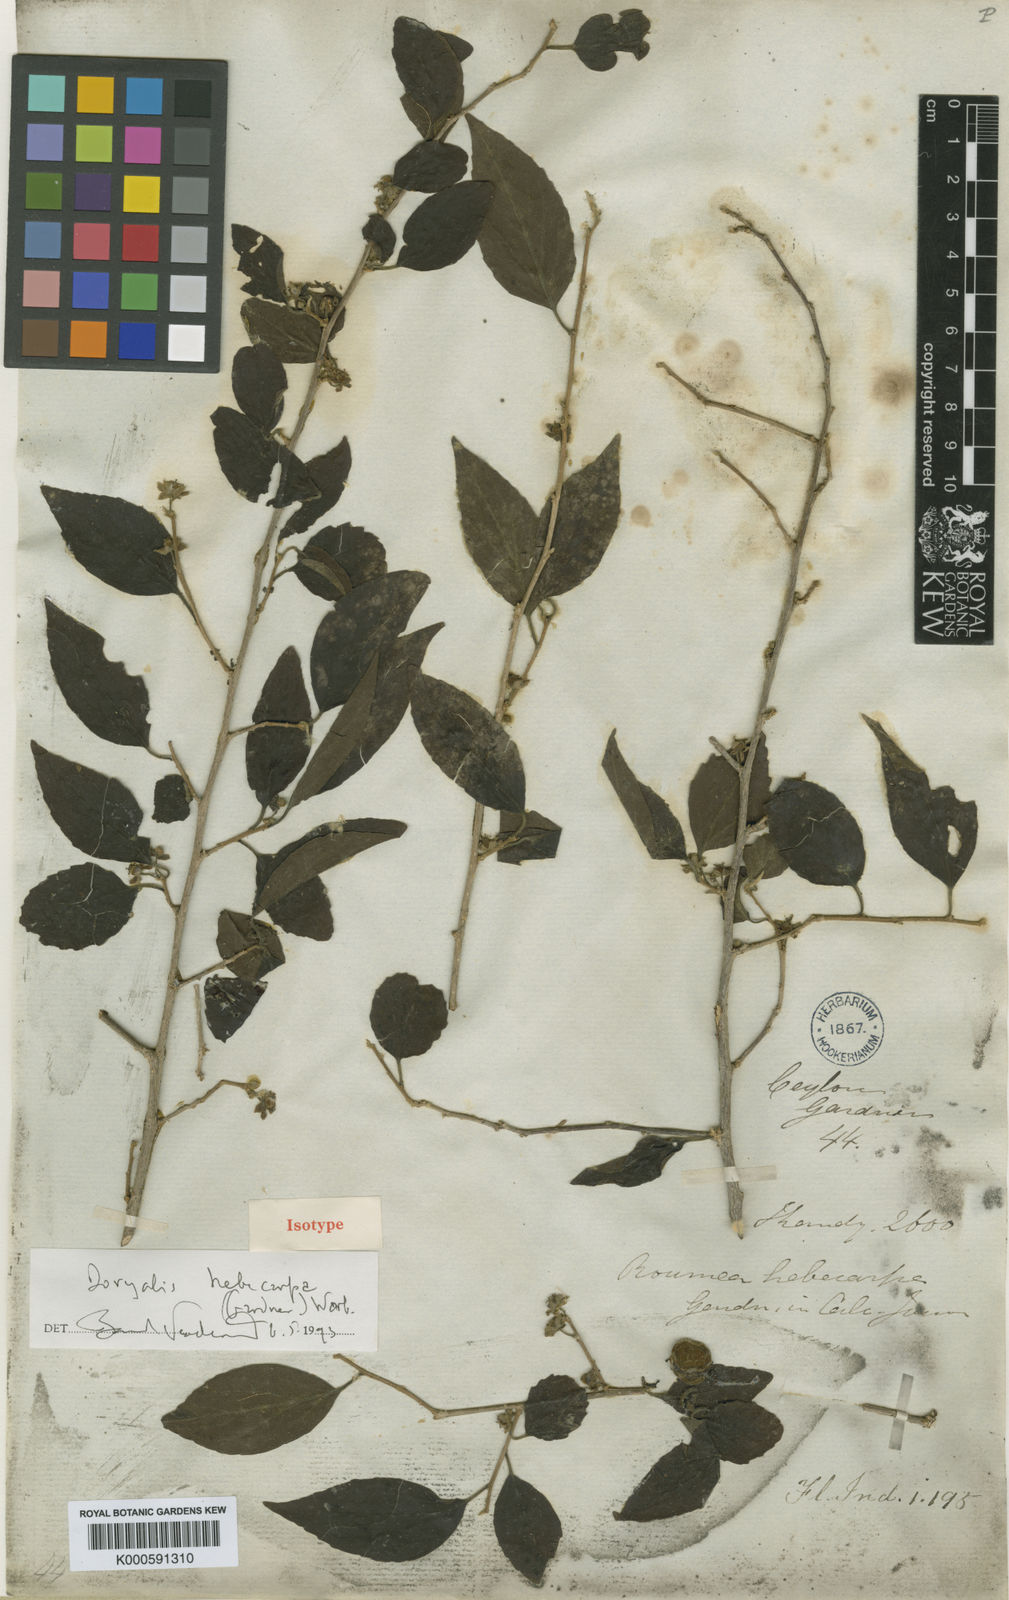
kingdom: Plantae
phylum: Tracheophyta
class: Magnoliopsida
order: Malpighiales
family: Salicaceae
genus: Dovyalis
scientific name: Dovyalis hebecarpa
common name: Ceylon gooseberry
